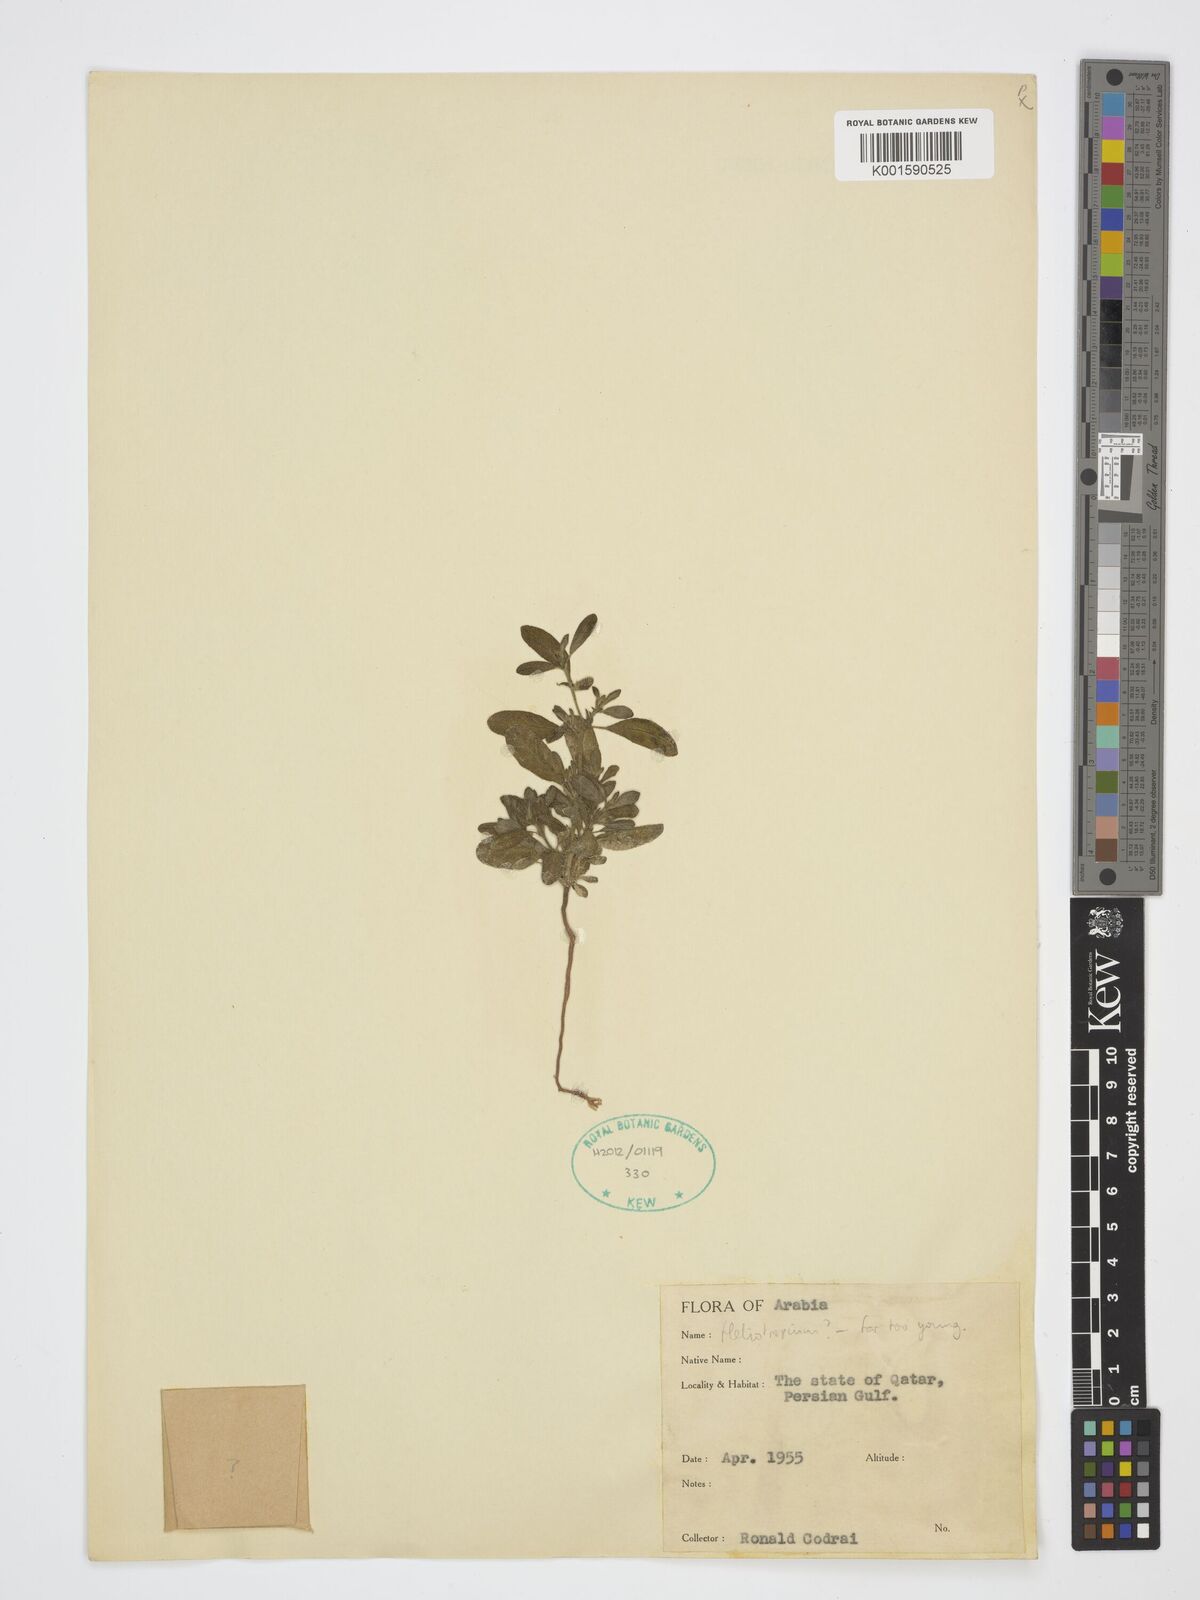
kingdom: Plantae
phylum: Tracheophyta
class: Magnoliopsida
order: Boraginales
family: Heliotropiaceae
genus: Heliotropium
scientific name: Heliotropium
